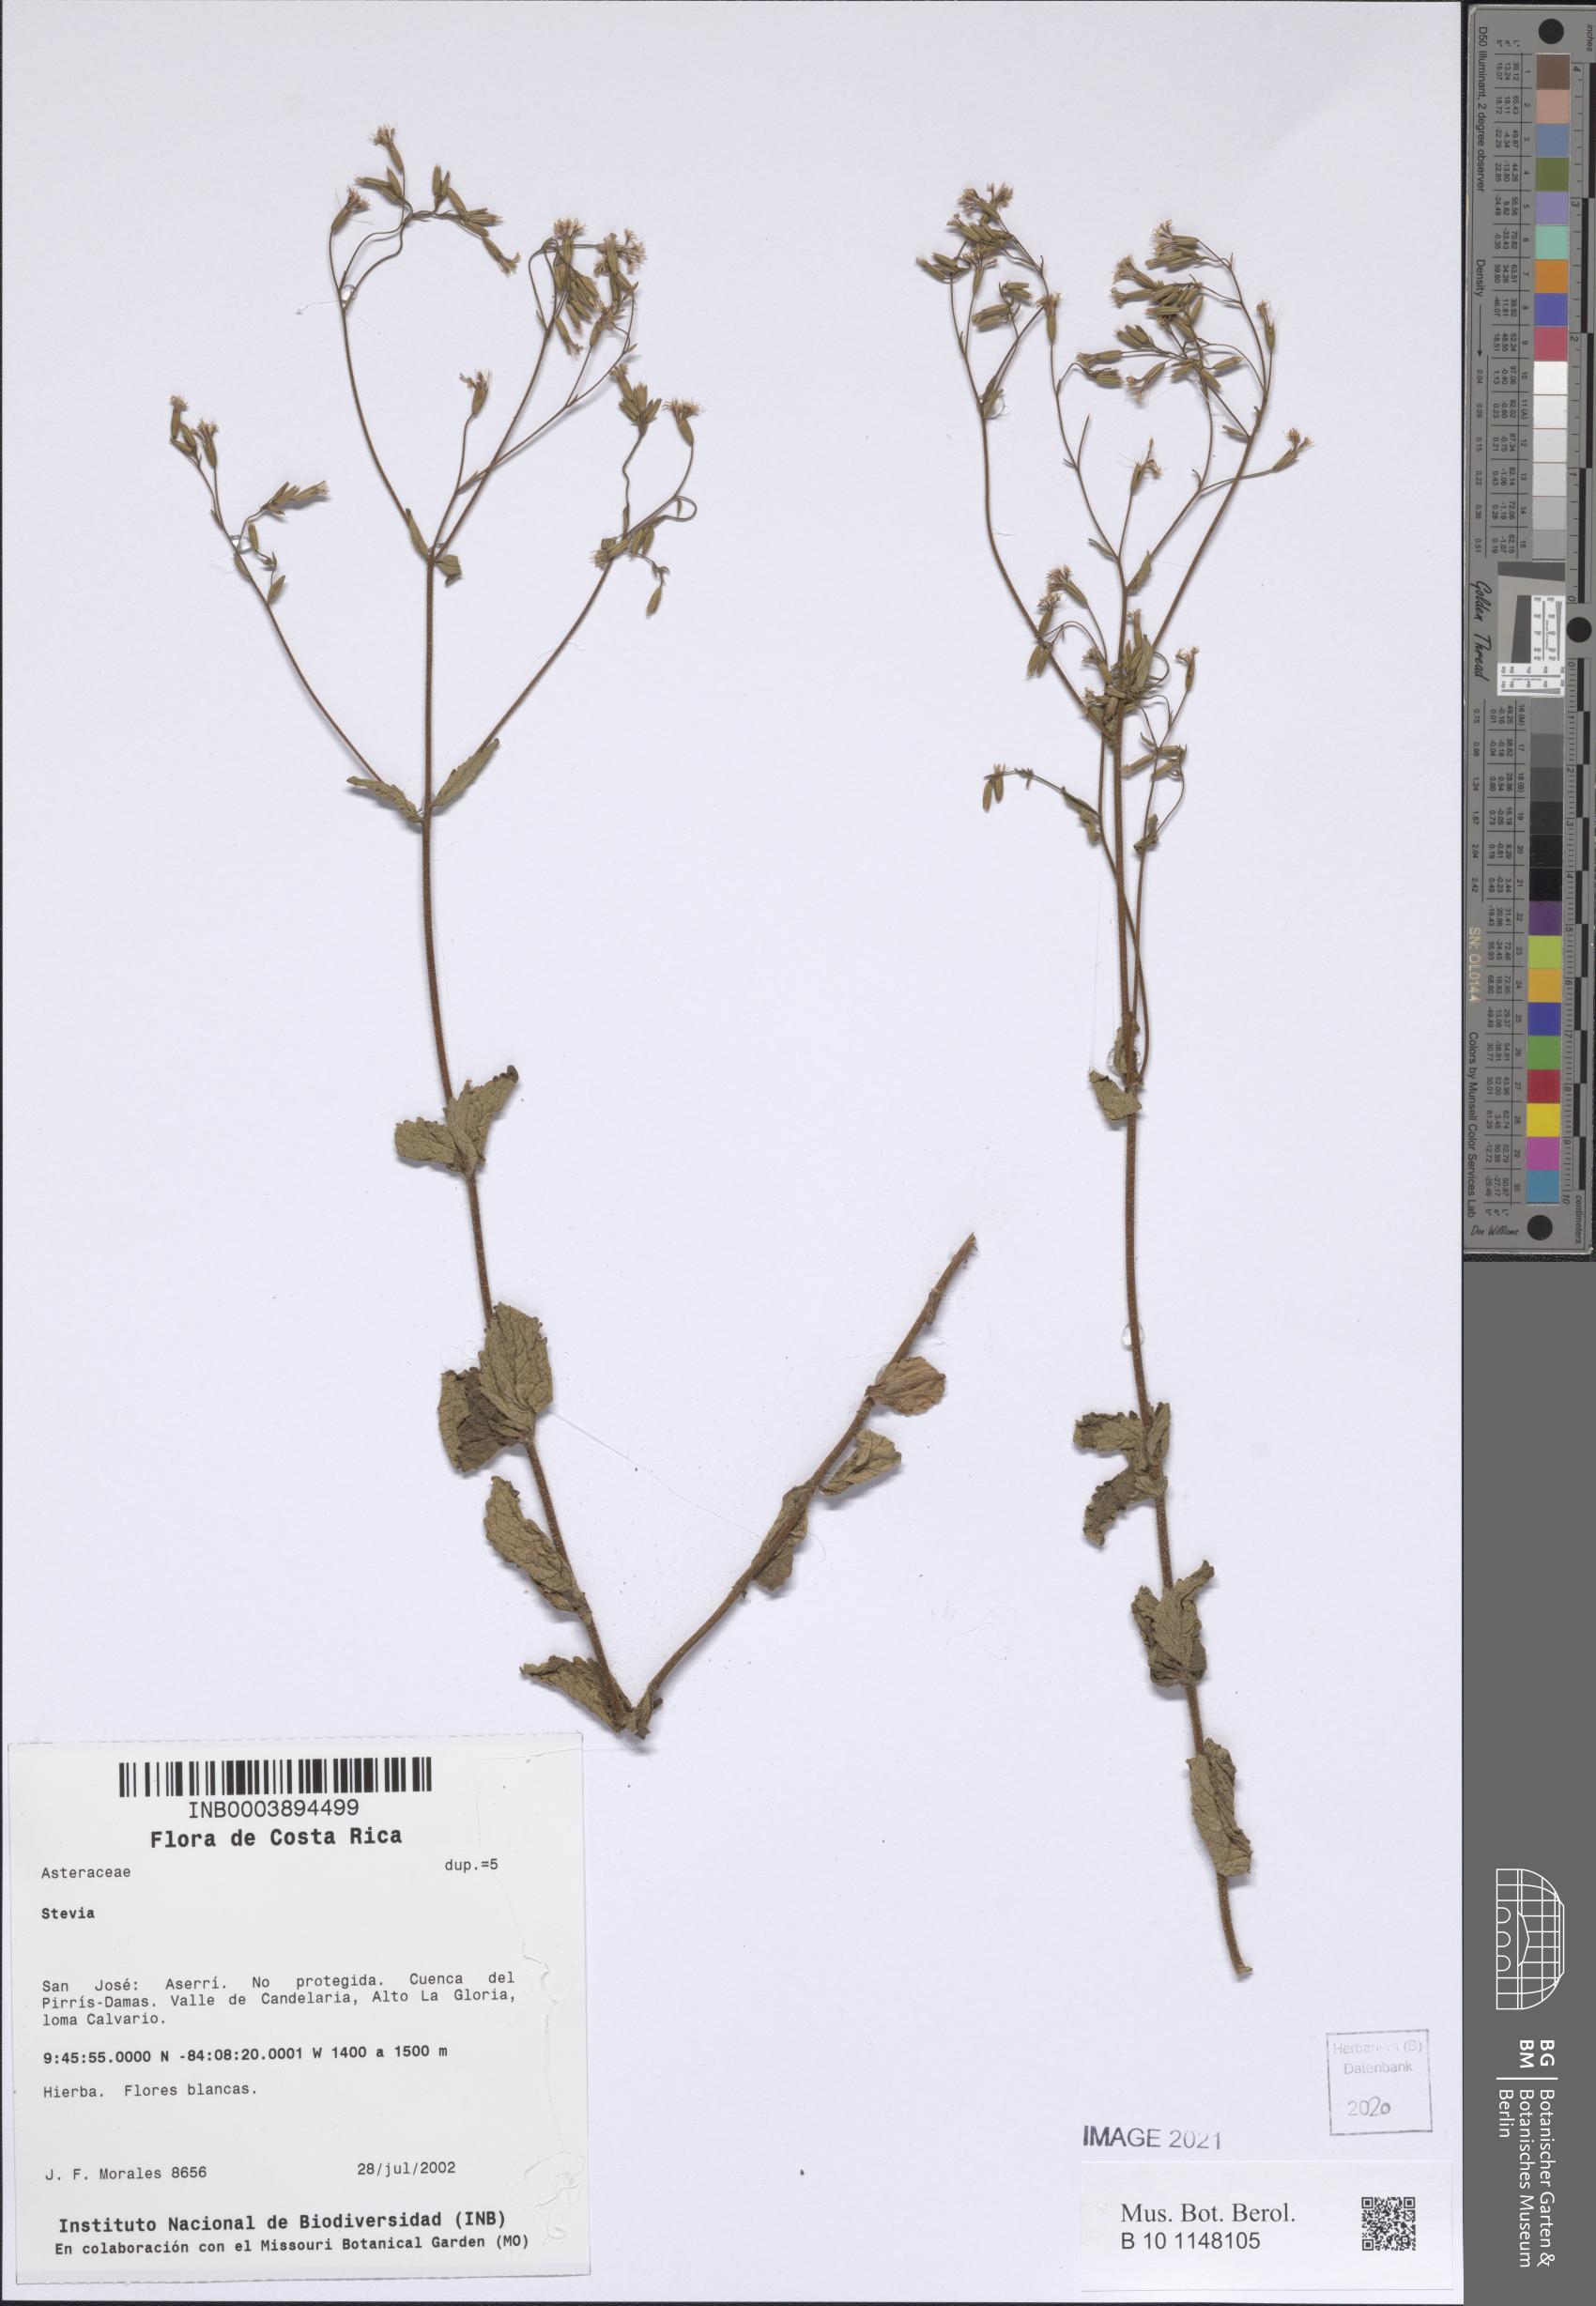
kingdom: Plantae
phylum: Tracheophyta
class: Magnoliopsida
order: Asterales
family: Asteraceae
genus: Stevia
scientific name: Stevia
